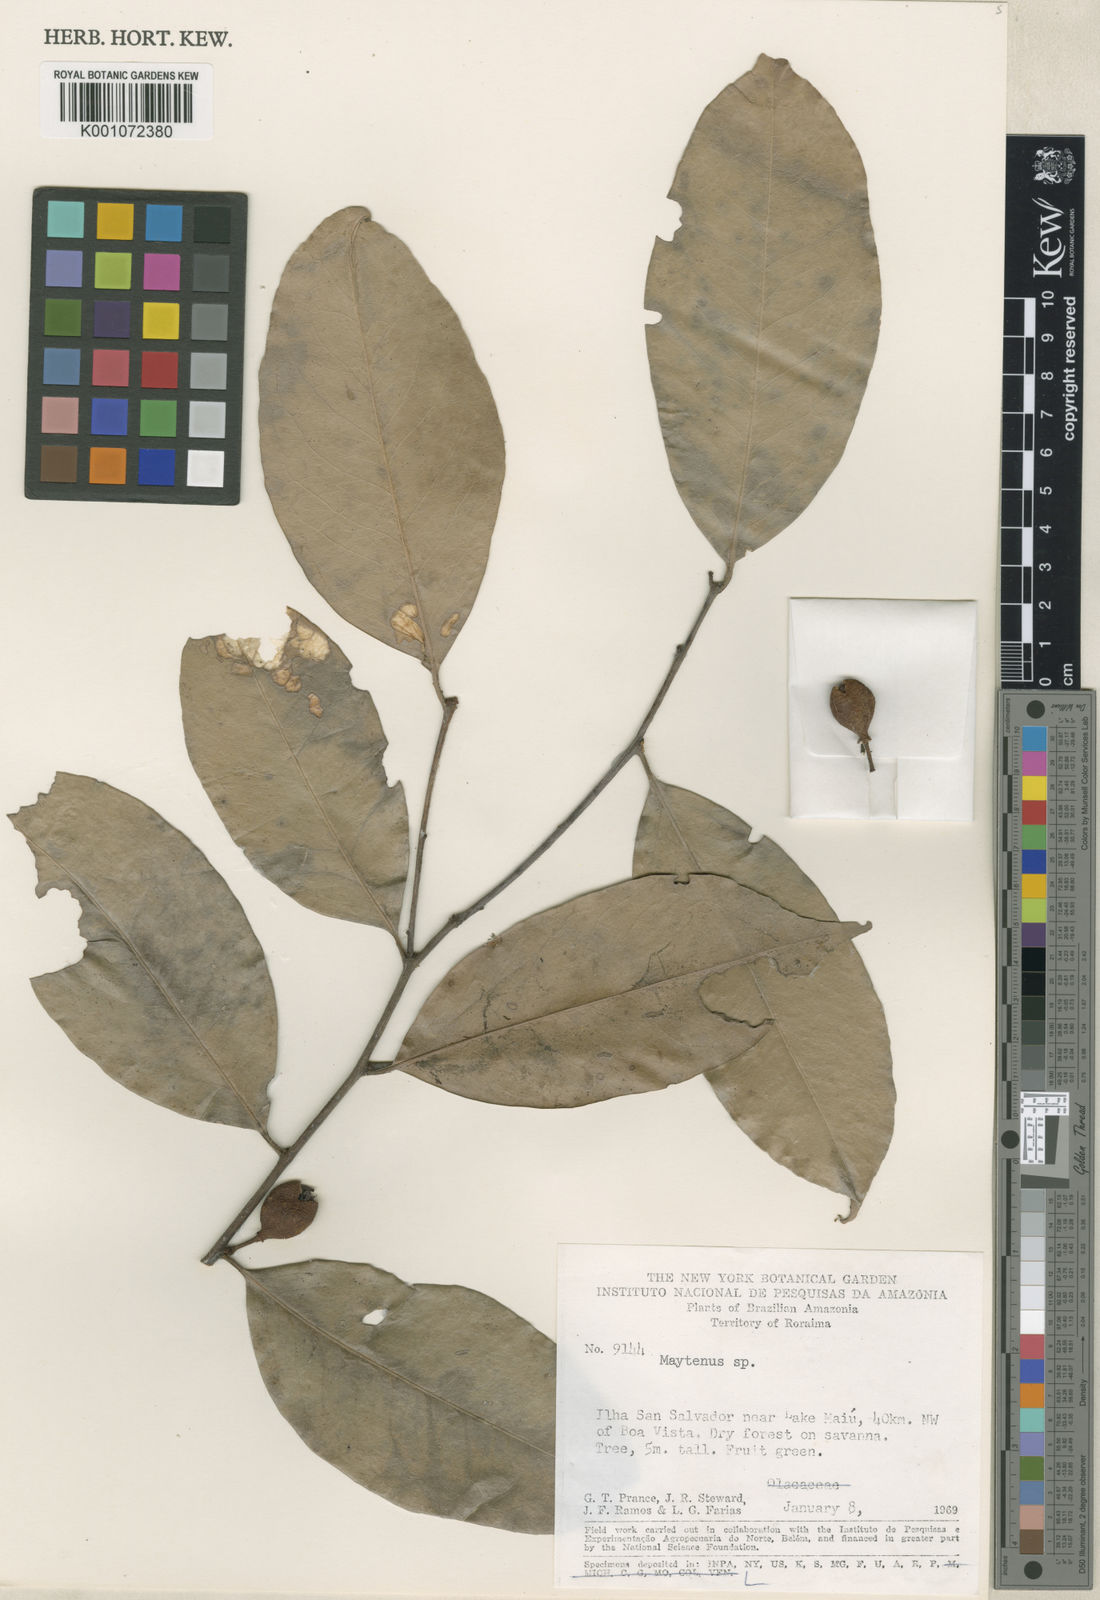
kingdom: Plantae
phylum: Tracheophyta
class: Magnoliopsida
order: Celastrales
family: Celastraceae
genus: Maytenus
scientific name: Maytenus
